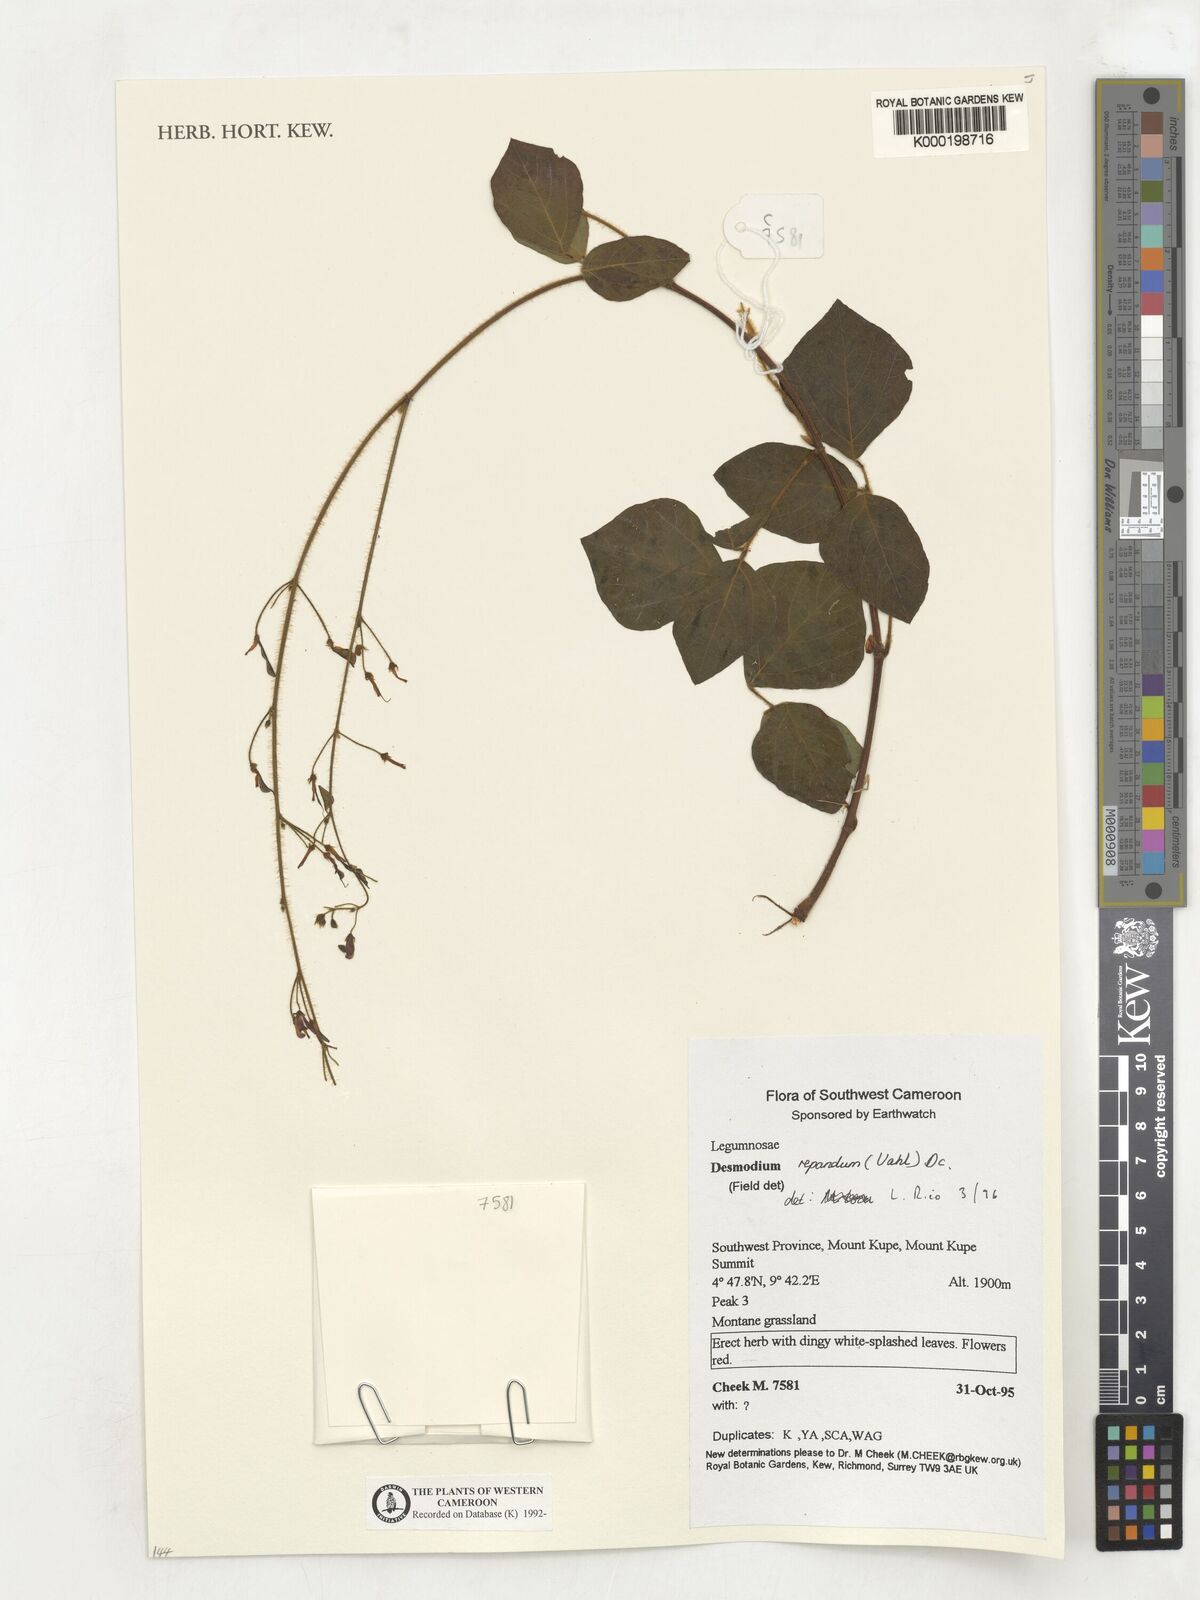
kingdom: Plantae
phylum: Tracheophyta
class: Magnoliopsida
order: Fabales
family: Fabaceae
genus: Desmodium
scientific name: Desmodium
